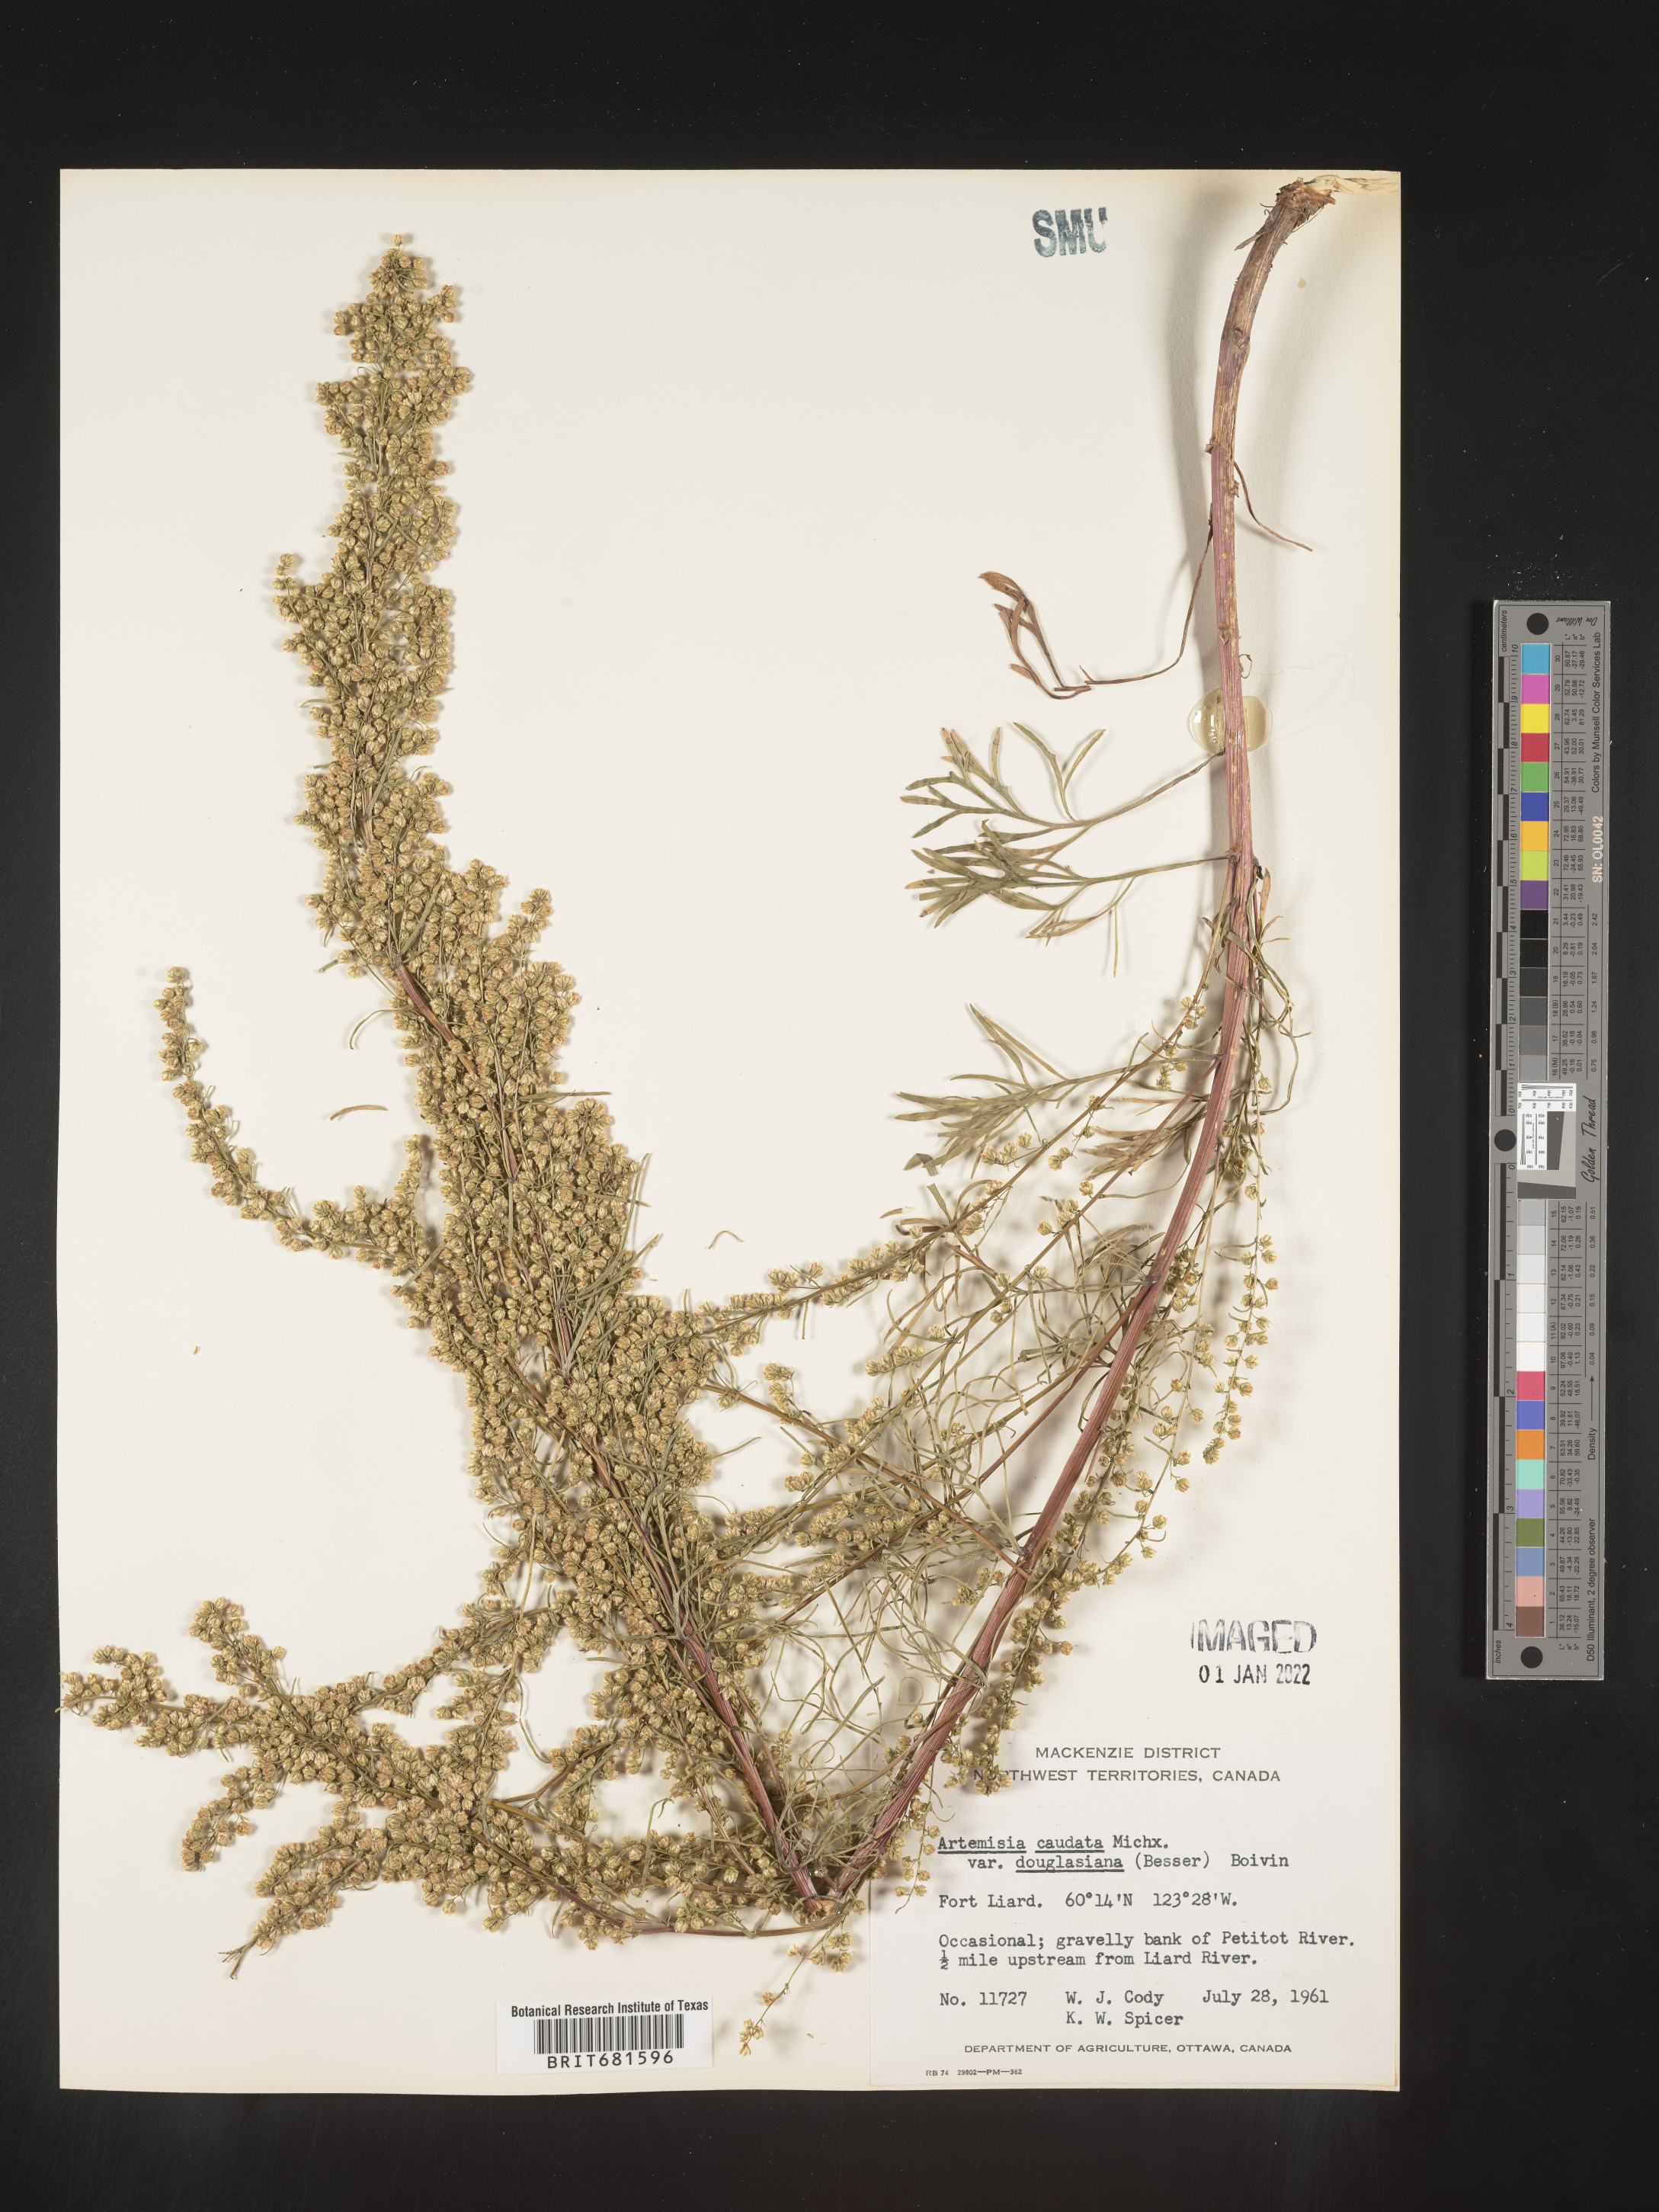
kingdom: Plantae
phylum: Tracheophyta
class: Magnoliopsida
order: Asterales
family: Asteraceae
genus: Artemisia
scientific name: Artemisia
